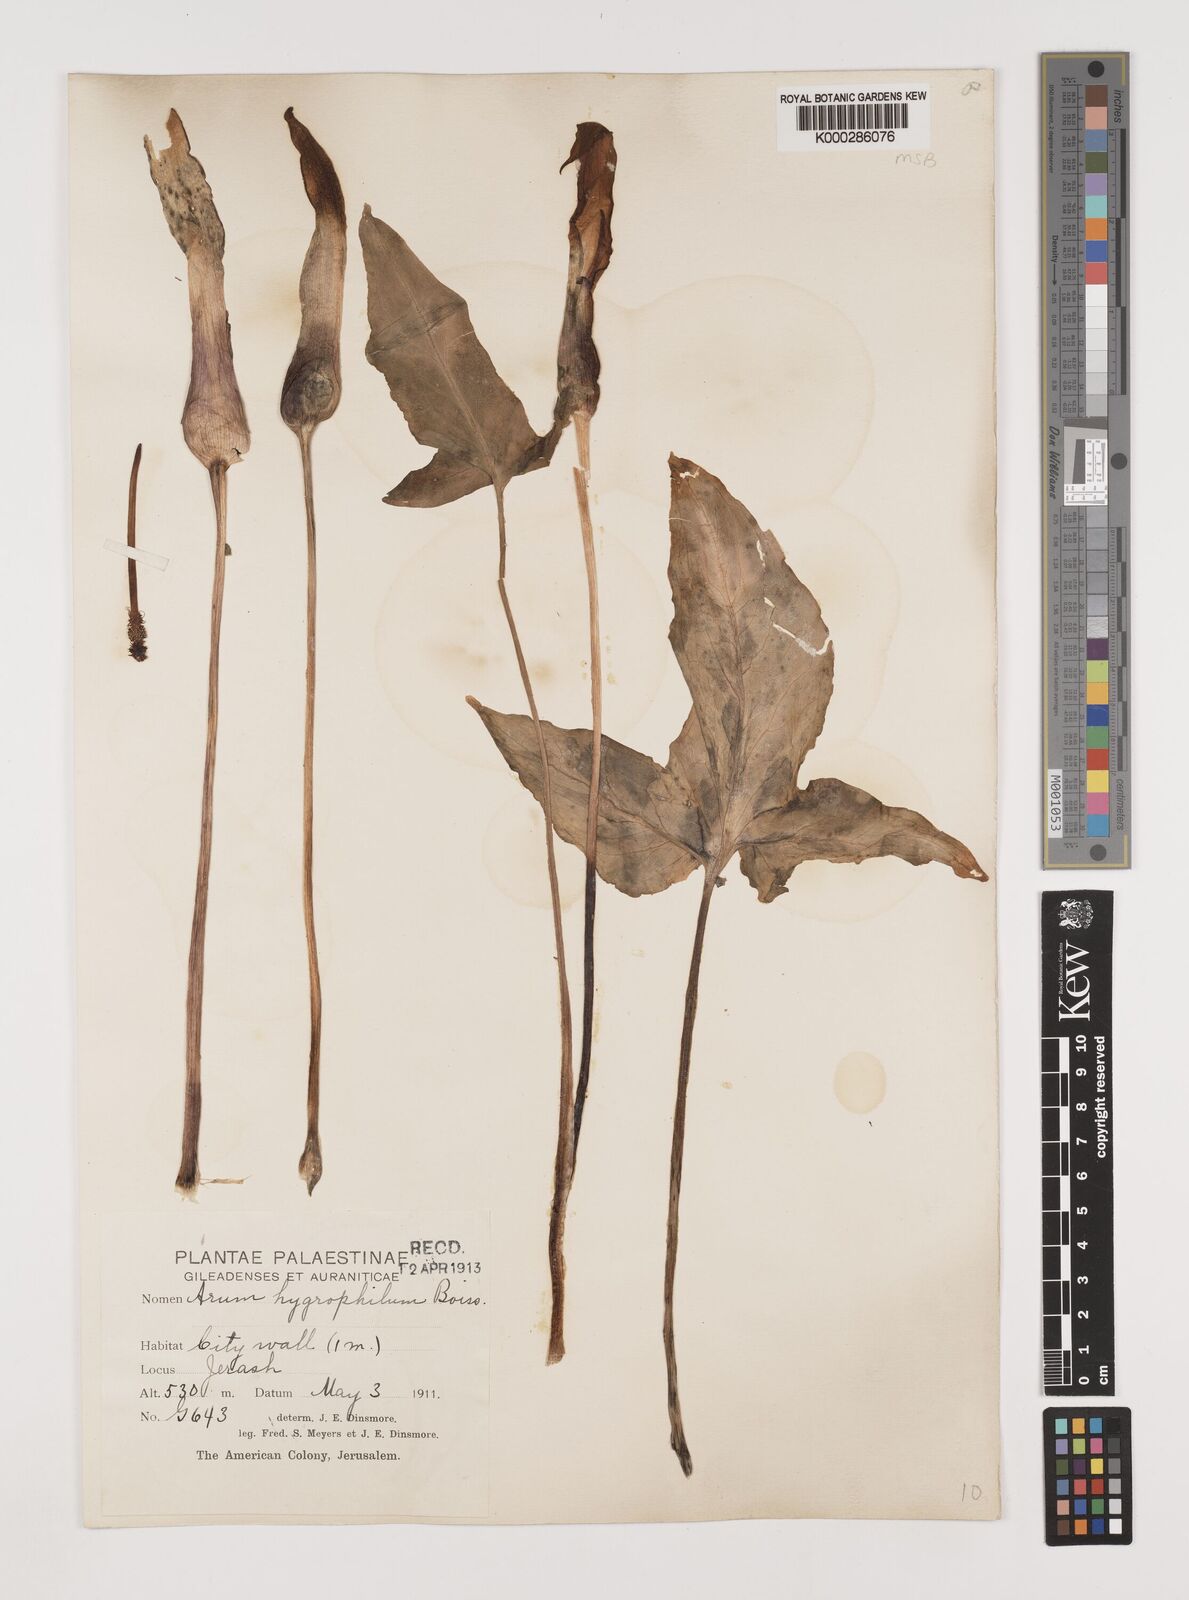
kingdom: Plantae
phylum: Tracheophyta
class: Liliopsida
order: Alismatales
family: Araceae
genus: Arum
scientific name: Arum hygrophilum
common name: Water arum
